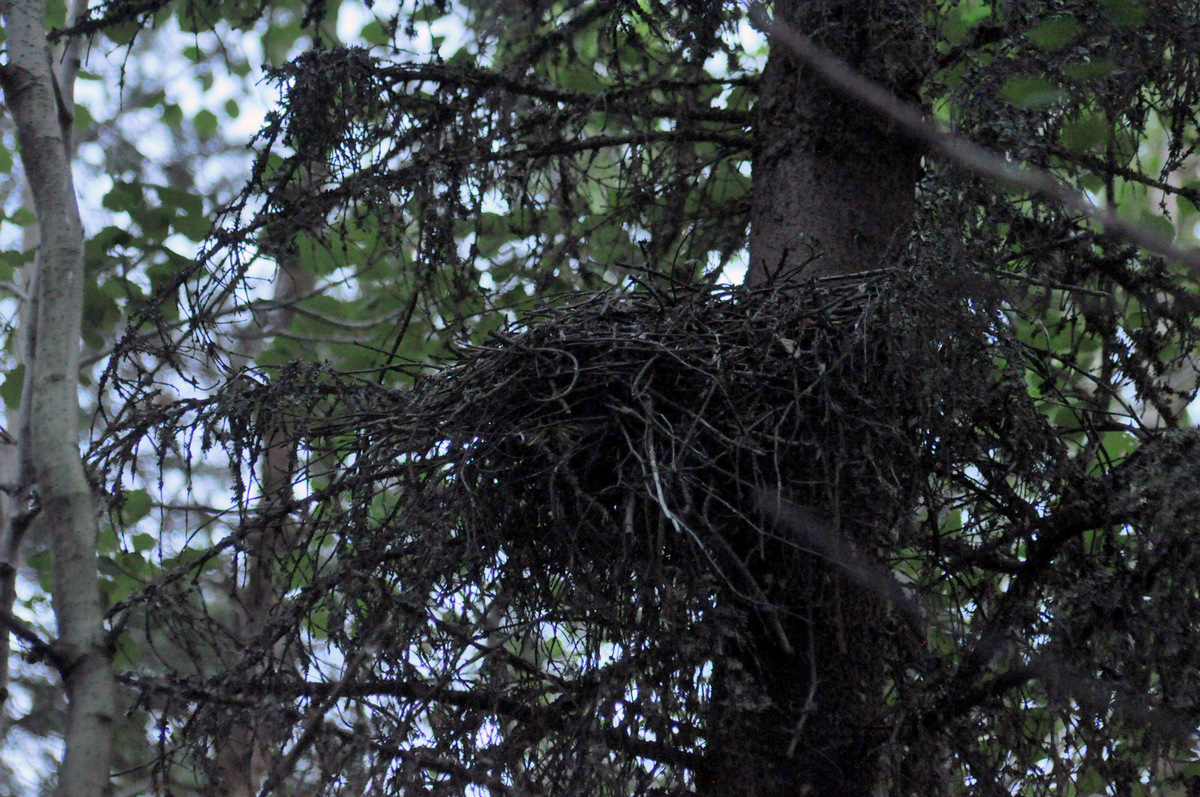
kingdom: Animalia
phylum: Chordata
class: Aves
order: Accipitriformes
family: Accipitridae
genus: Accipiter
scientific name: Accipiter nisus
